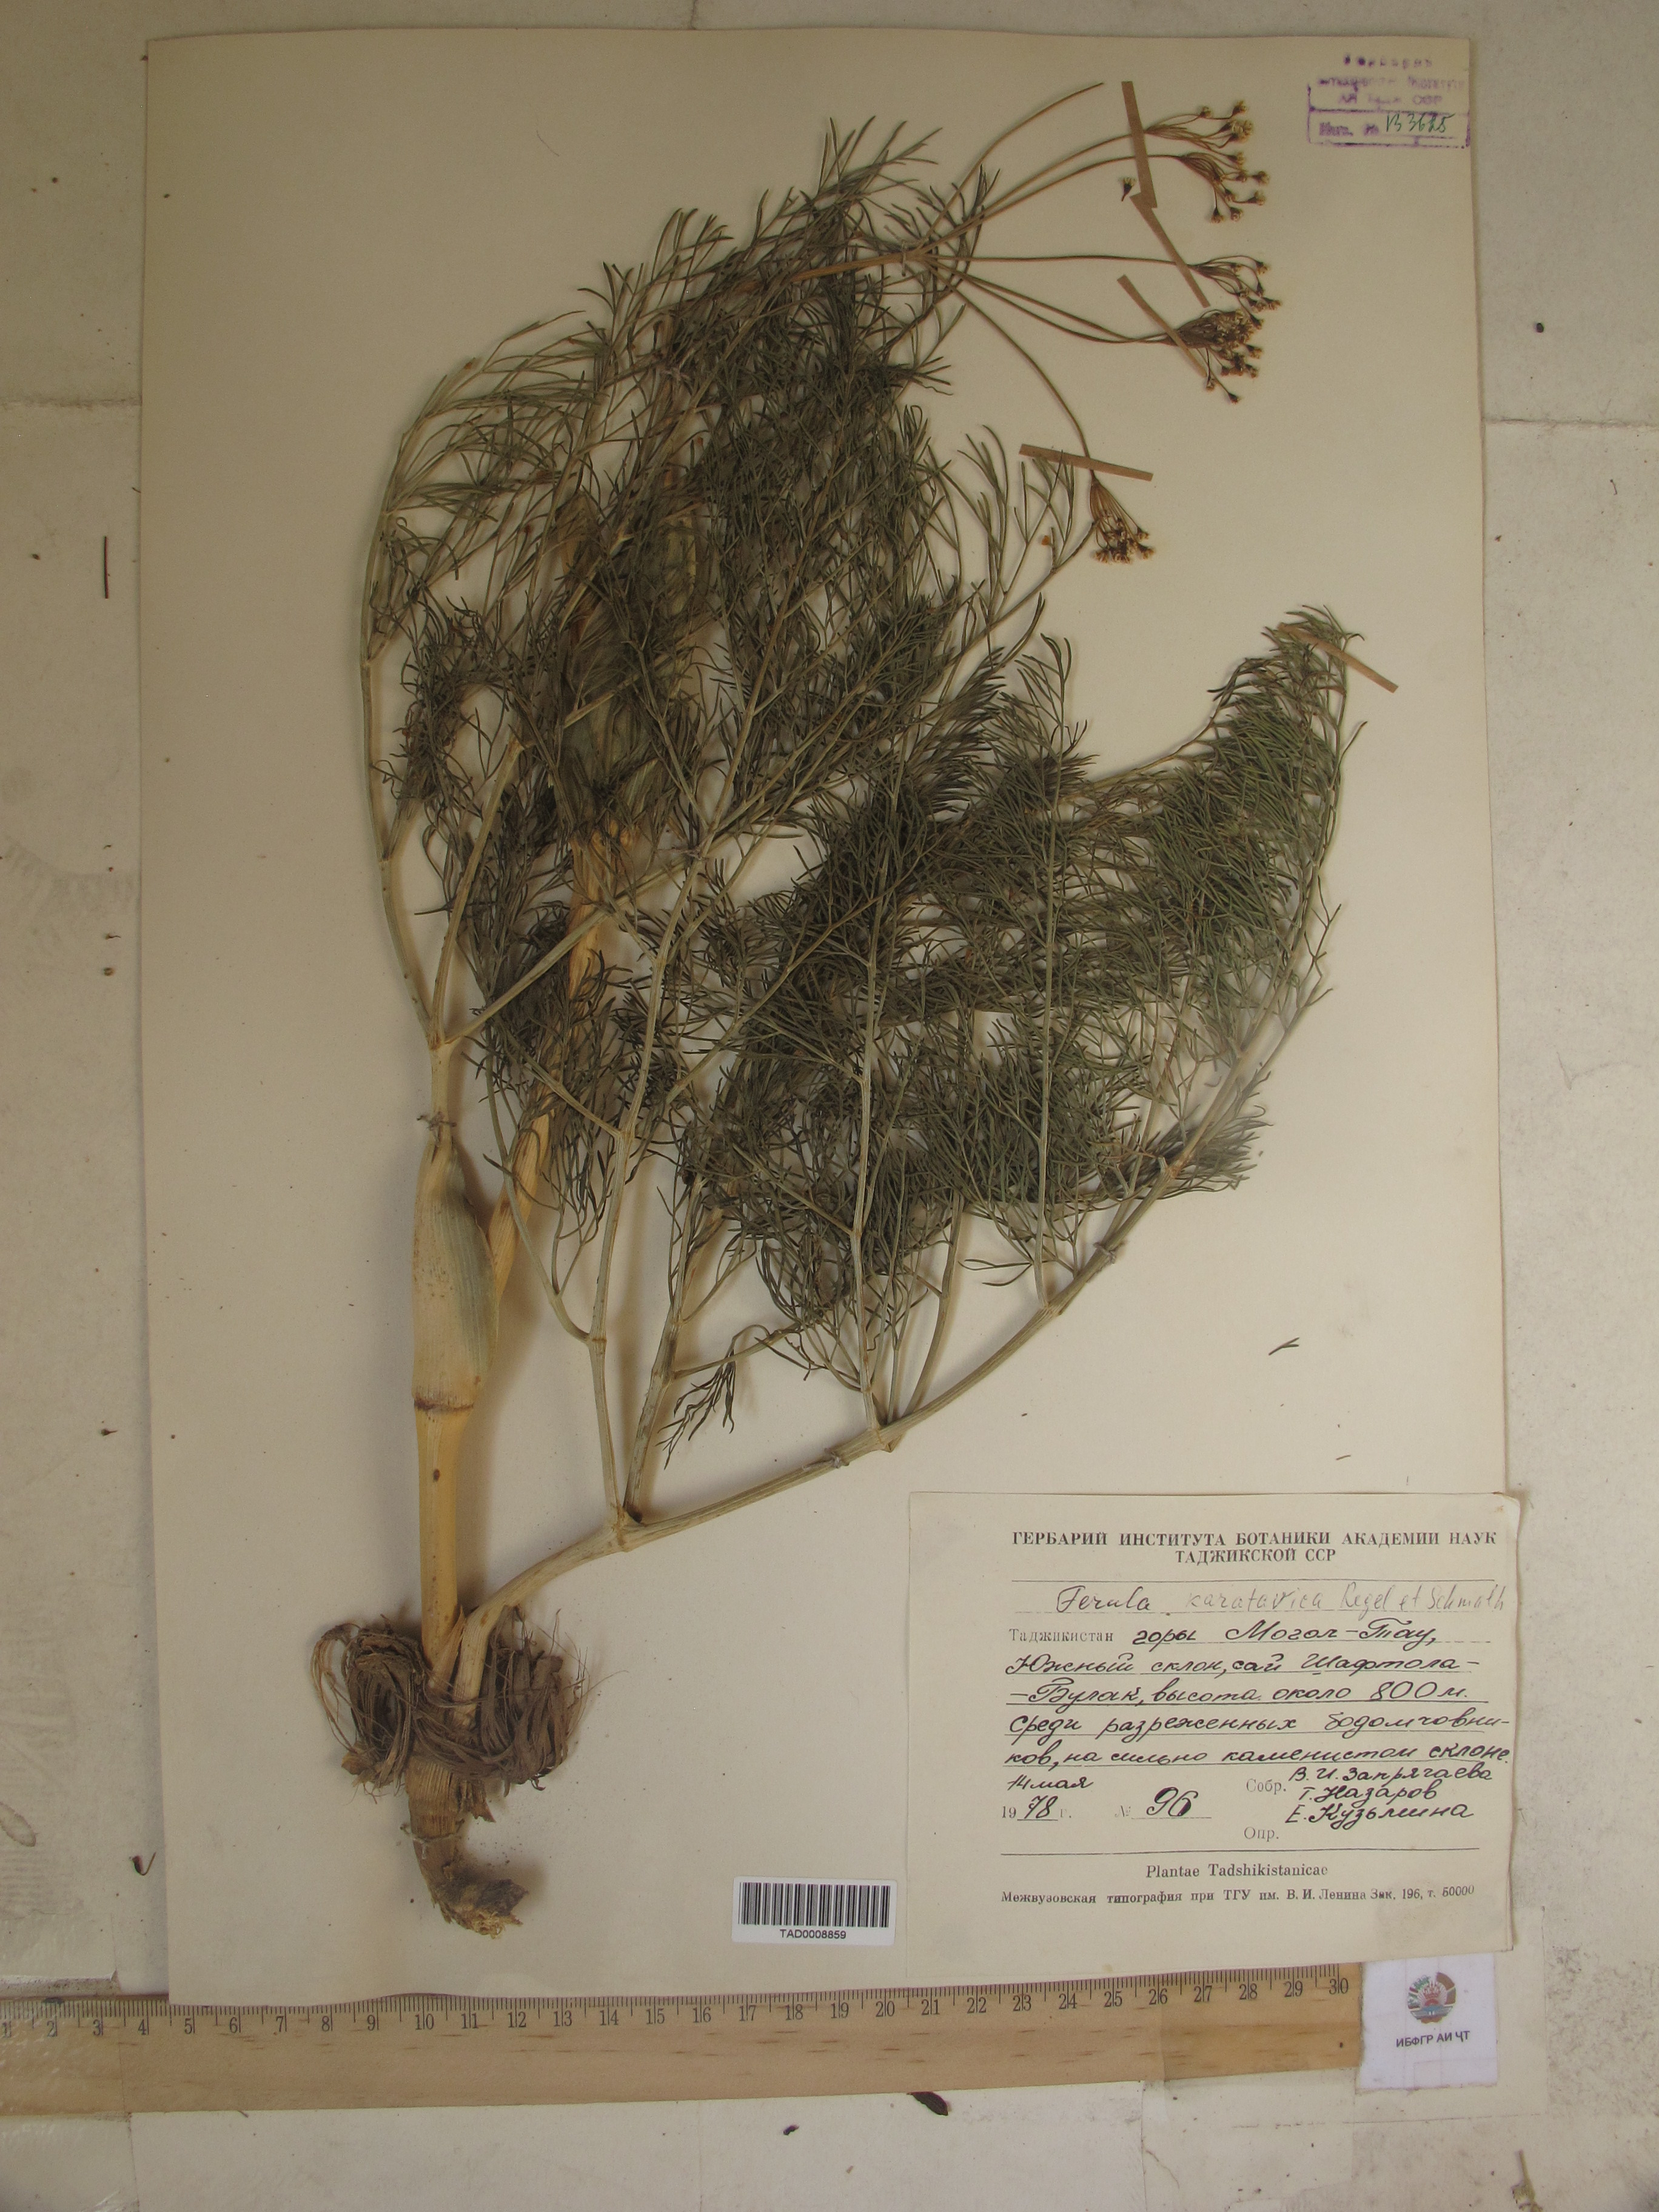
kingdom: Plantae
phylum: Tracheophyta
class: Magnoliopsida
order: Apiales
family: Apiaceae
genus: Ferula
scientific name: Ferula karatavica
